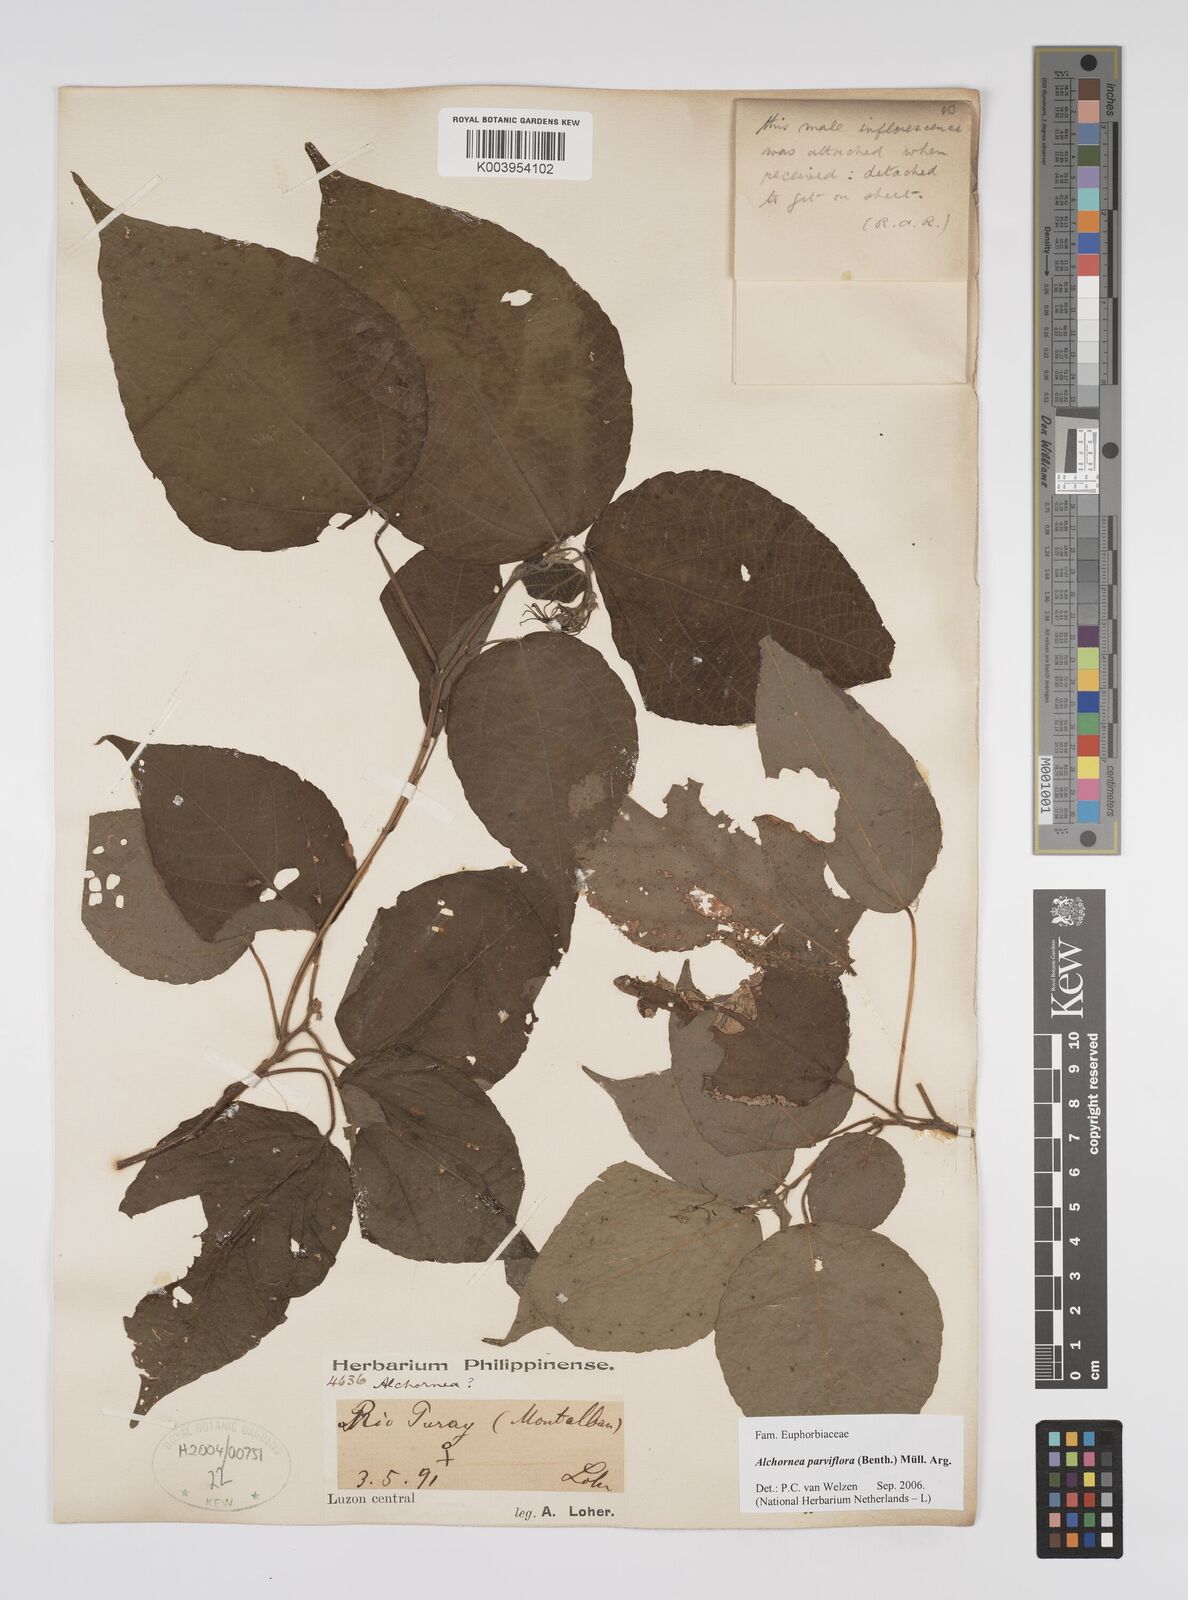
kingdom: Plantae
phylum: Tracheophyta
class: Magnoliopsida
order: Malpighiales
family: Euphorbiaceae
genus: Alchornea
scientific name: Alchornea parviflora
